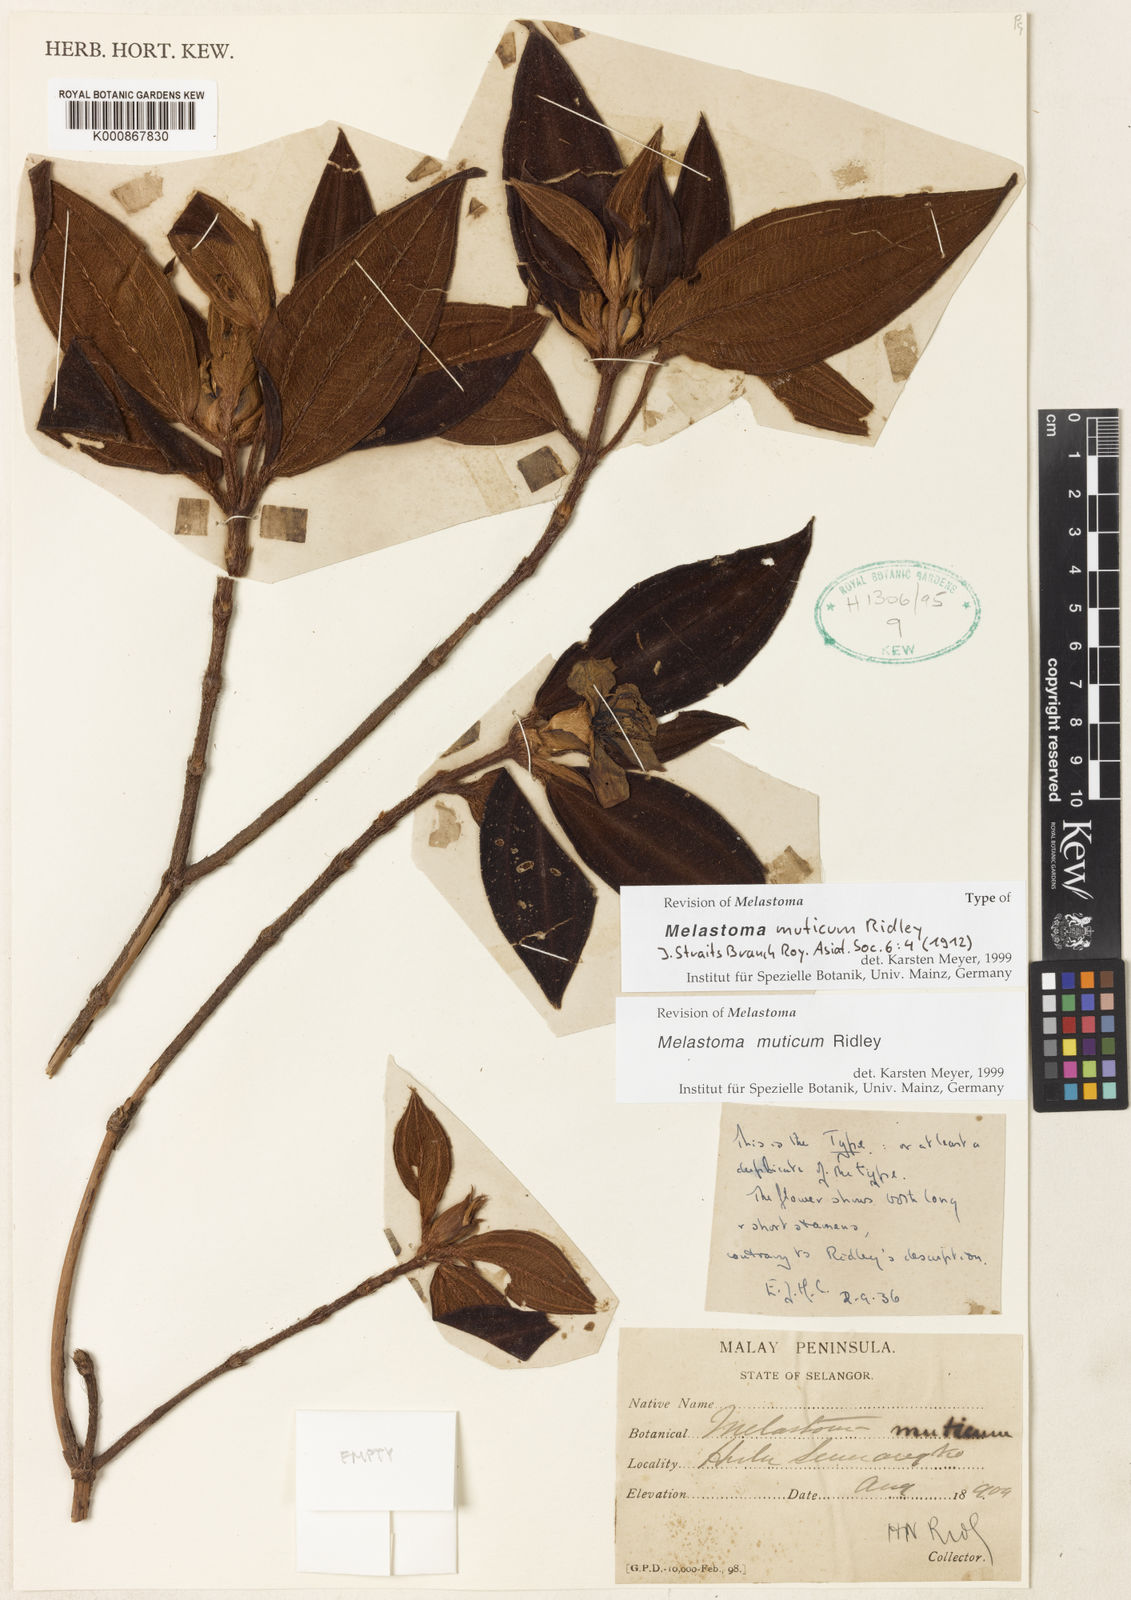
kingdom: Plantae
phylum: Tracheophyta
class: Magnoliopsida
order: Myrtales
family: Melastomataceae
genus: Melastoma
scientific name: Melastoma muticum
